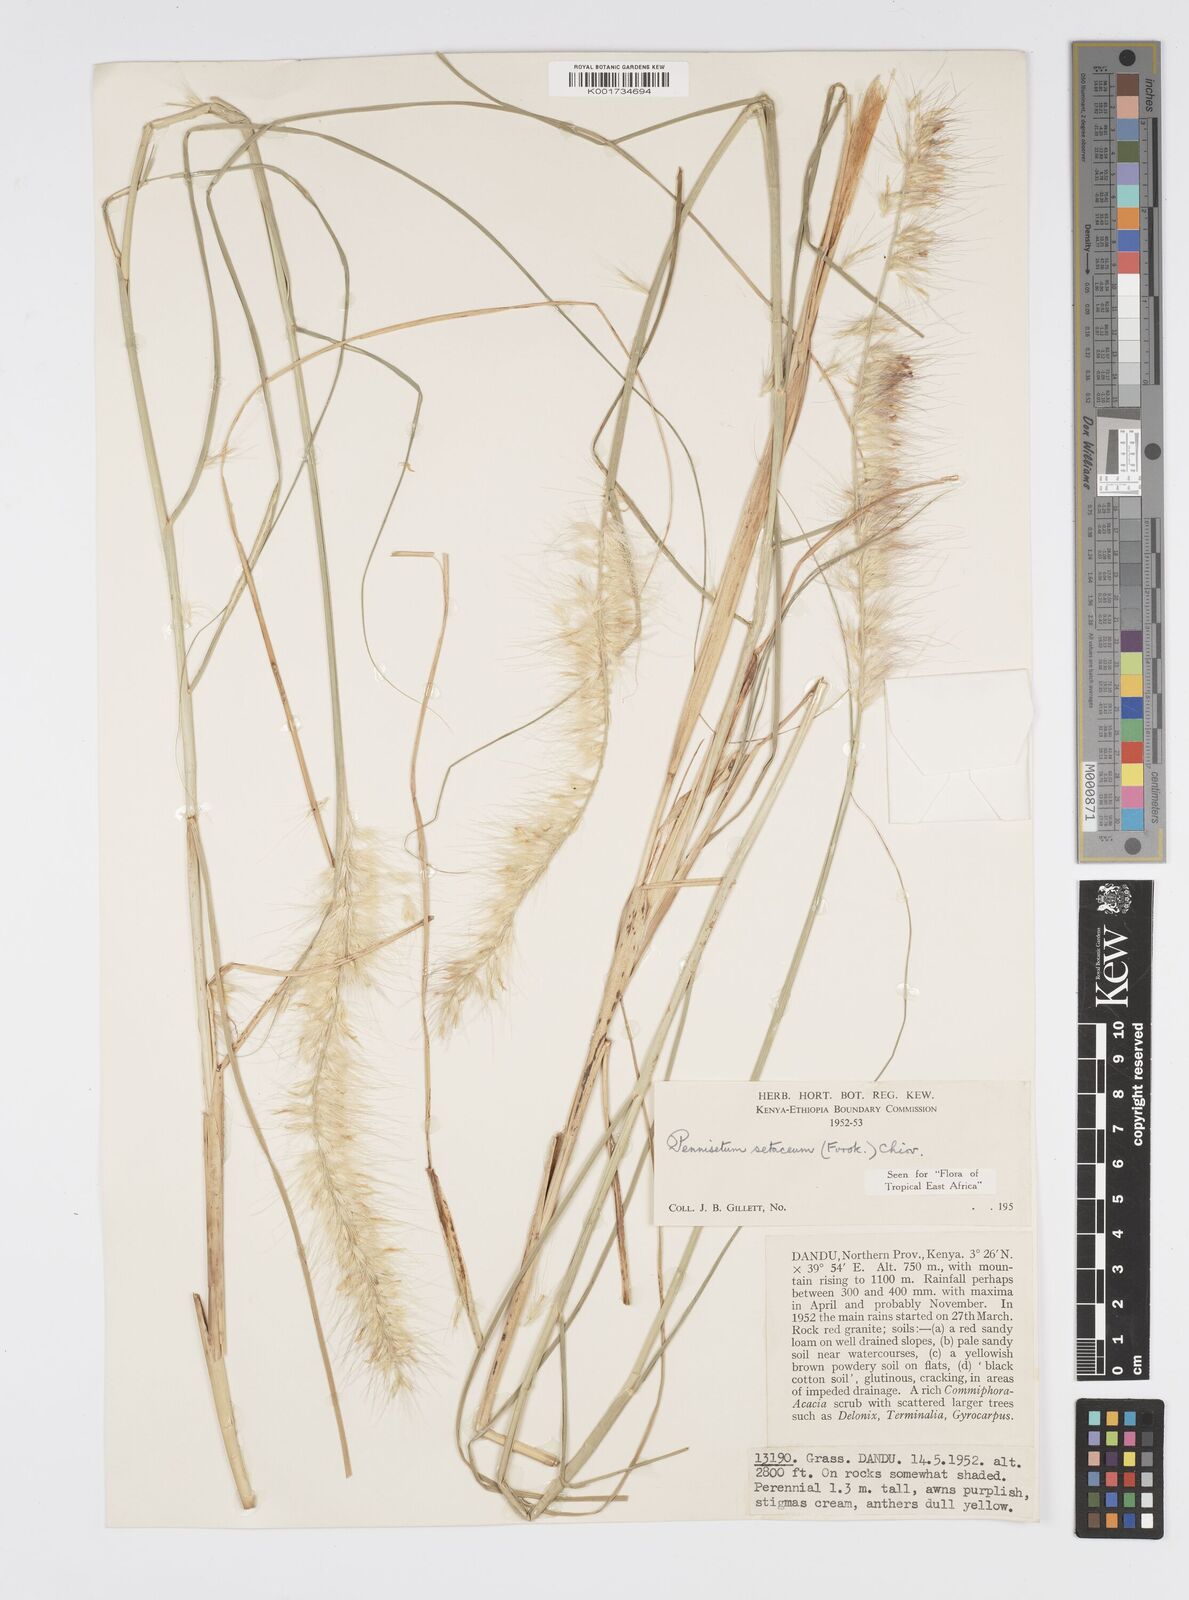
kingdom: Plantae
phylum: Tracheophyta
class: Liliopsida
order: Poales
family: Poaceae
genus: Cenchrus
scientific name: Cenchrus setaceus
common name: Crimson fountaingrass
